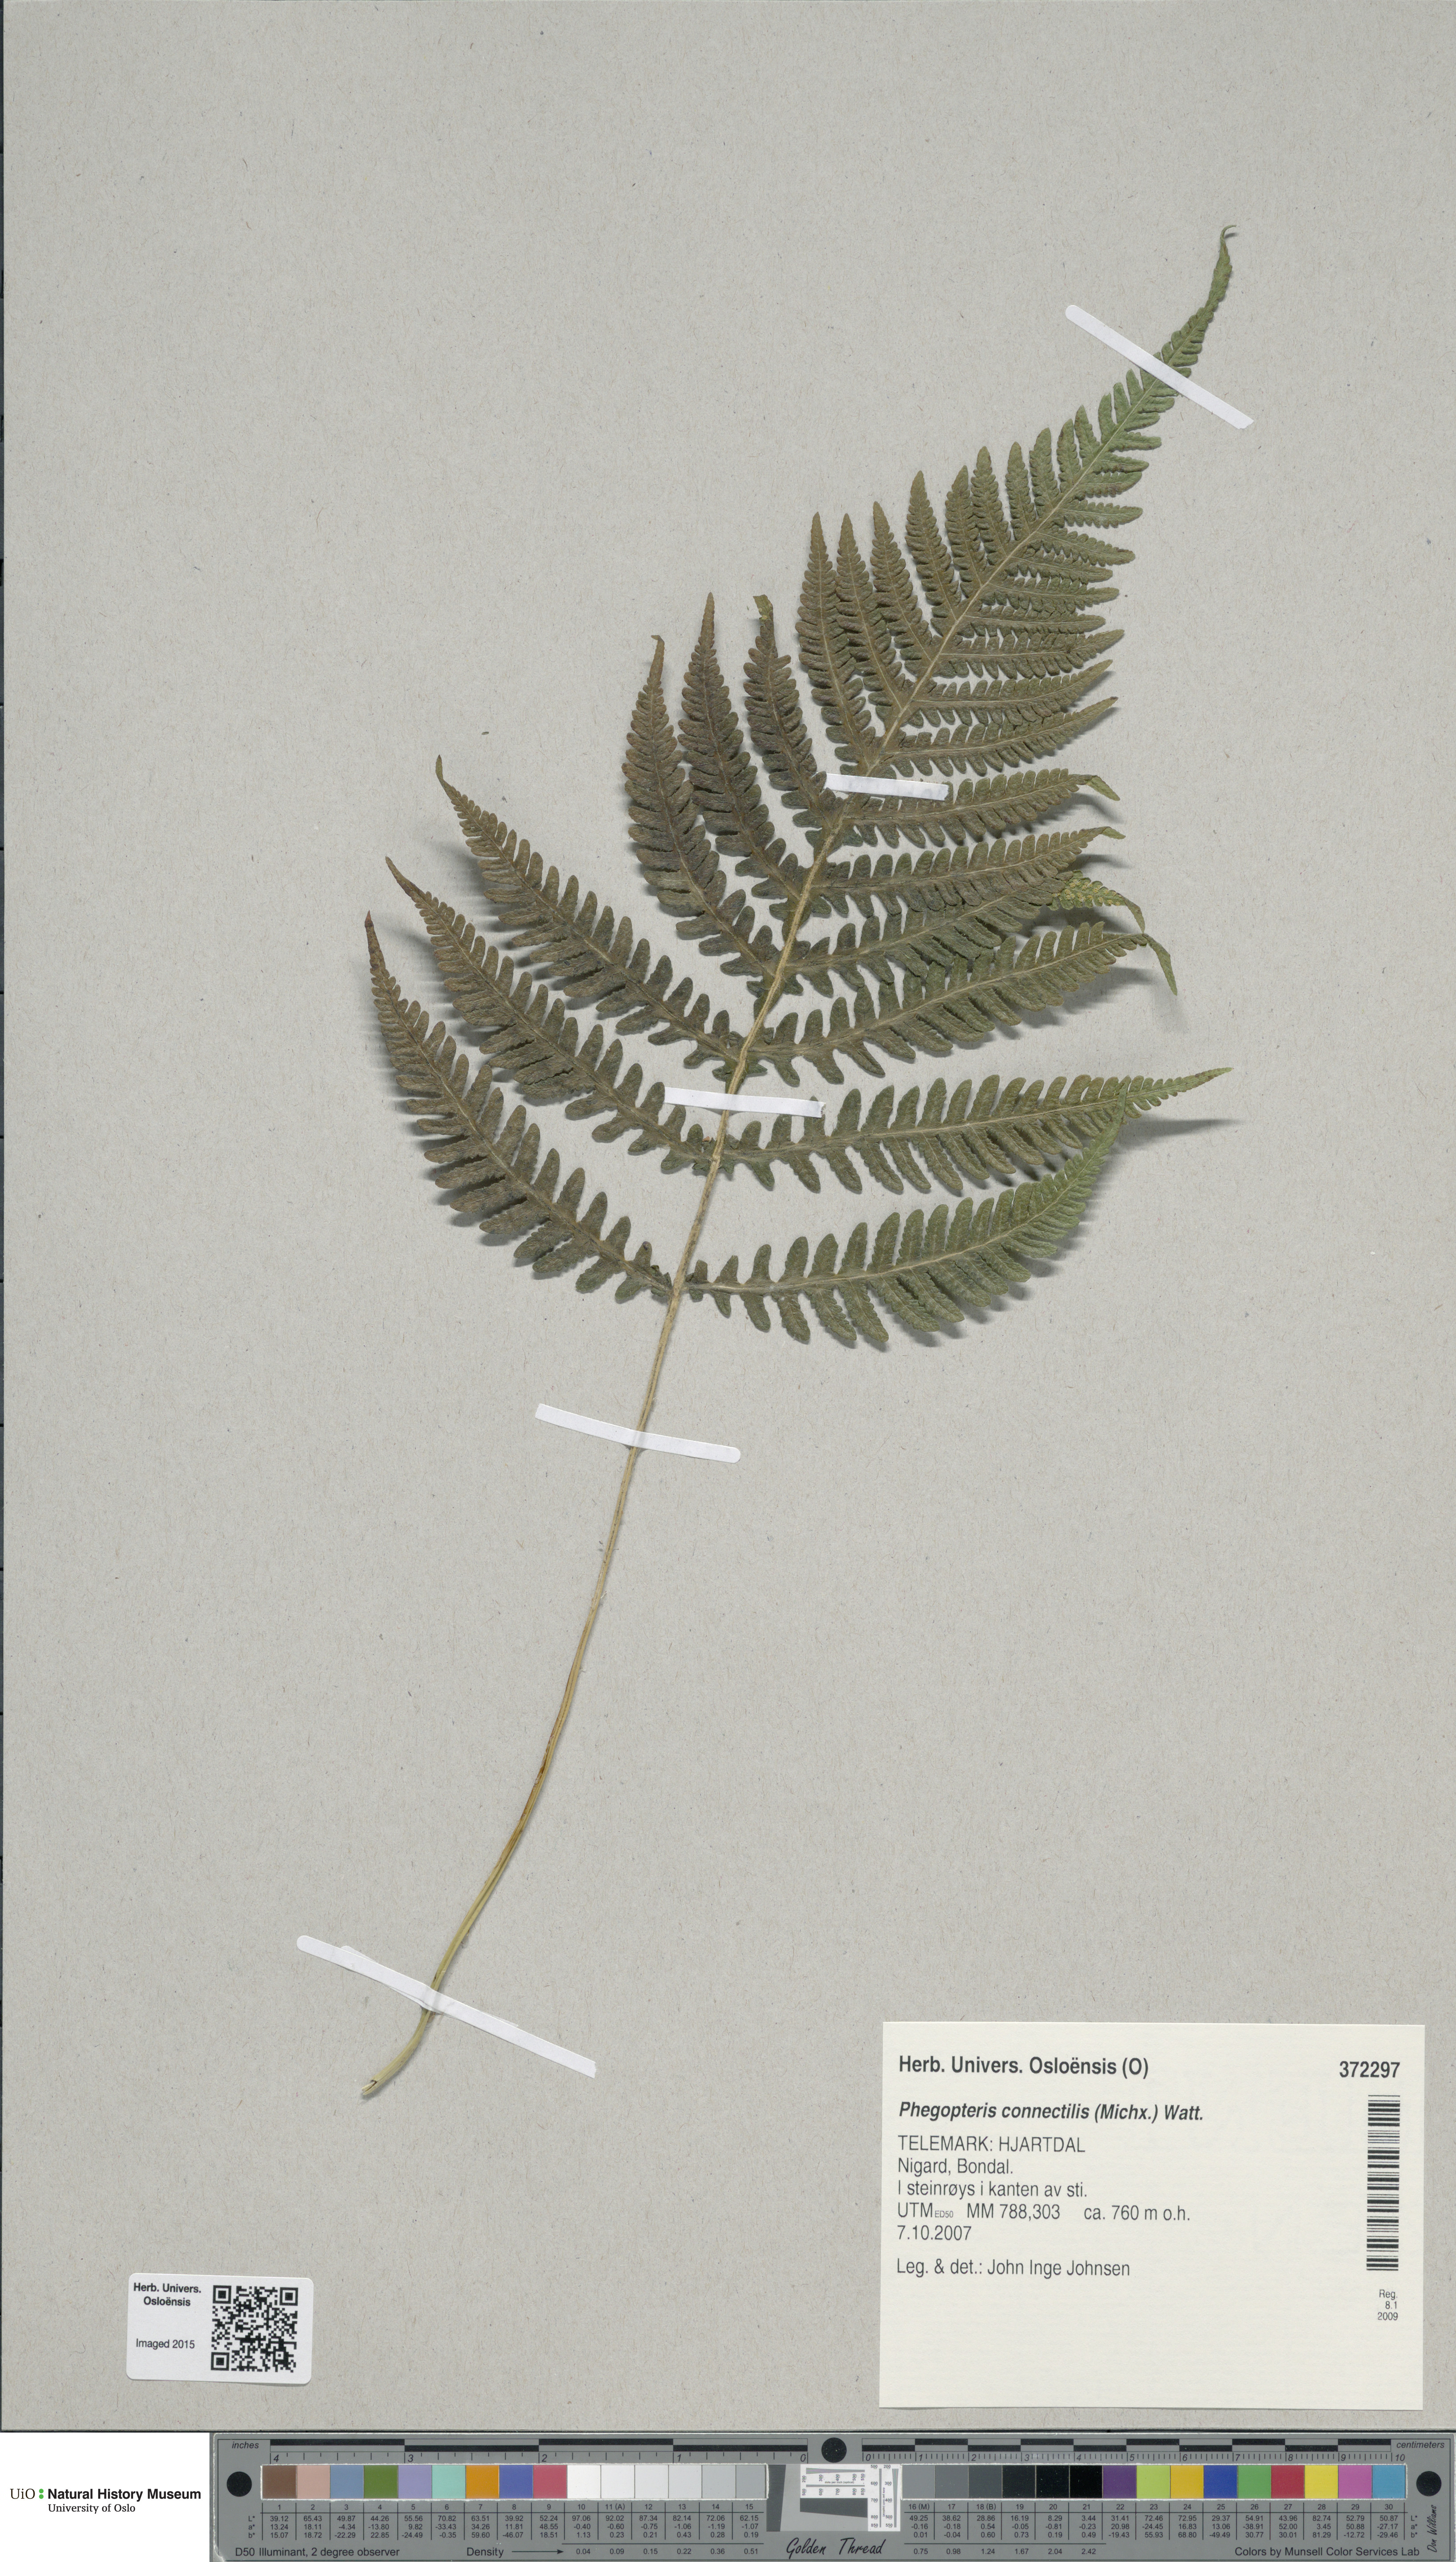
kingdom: Plantae
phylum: Tracheophyta
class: Polypodiopsida
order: Polypodiales
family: Thelypteridaceae
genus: Phegopteris
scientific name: Phegopteris connectilis
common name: Beech fern
